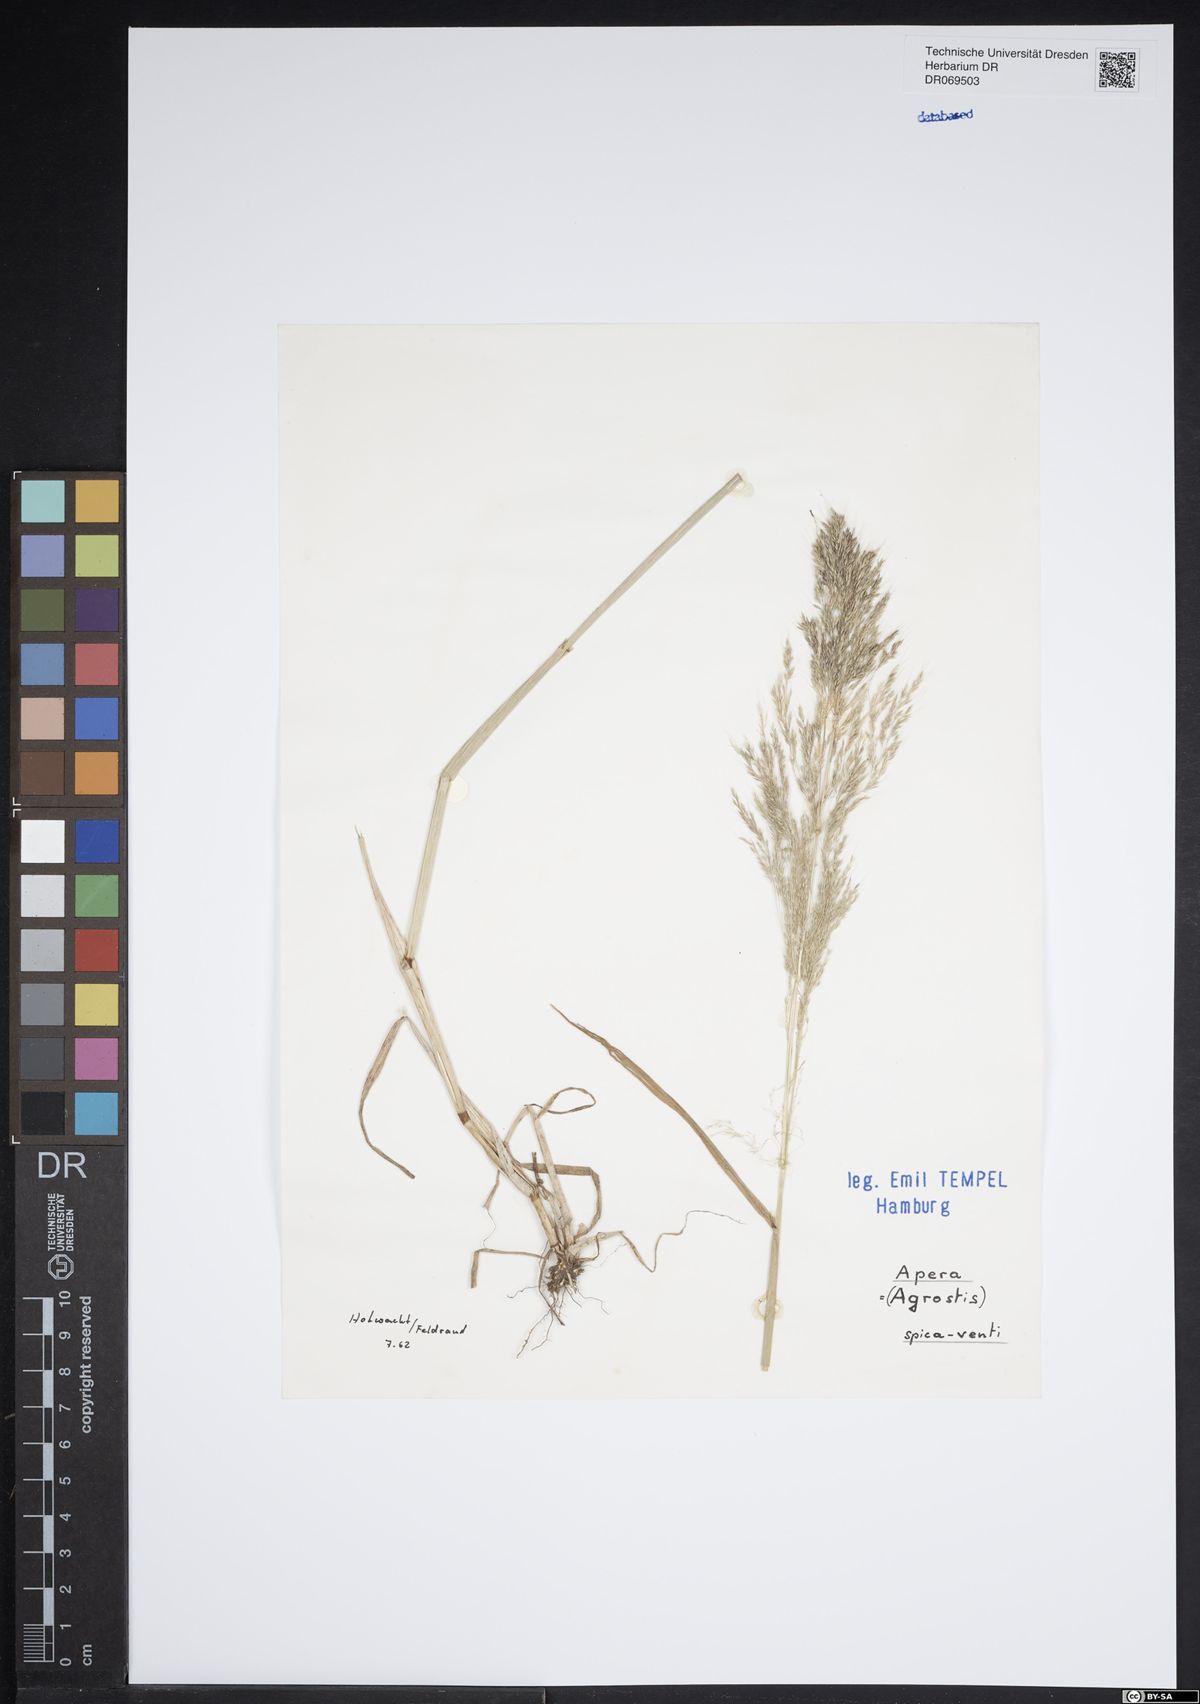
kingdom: Plantae
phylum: Tracheophyta
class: Liliopsida
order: Poales
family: Poaceae
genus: Apera
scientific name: Apera spica-venti
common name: Loose silky-bent
